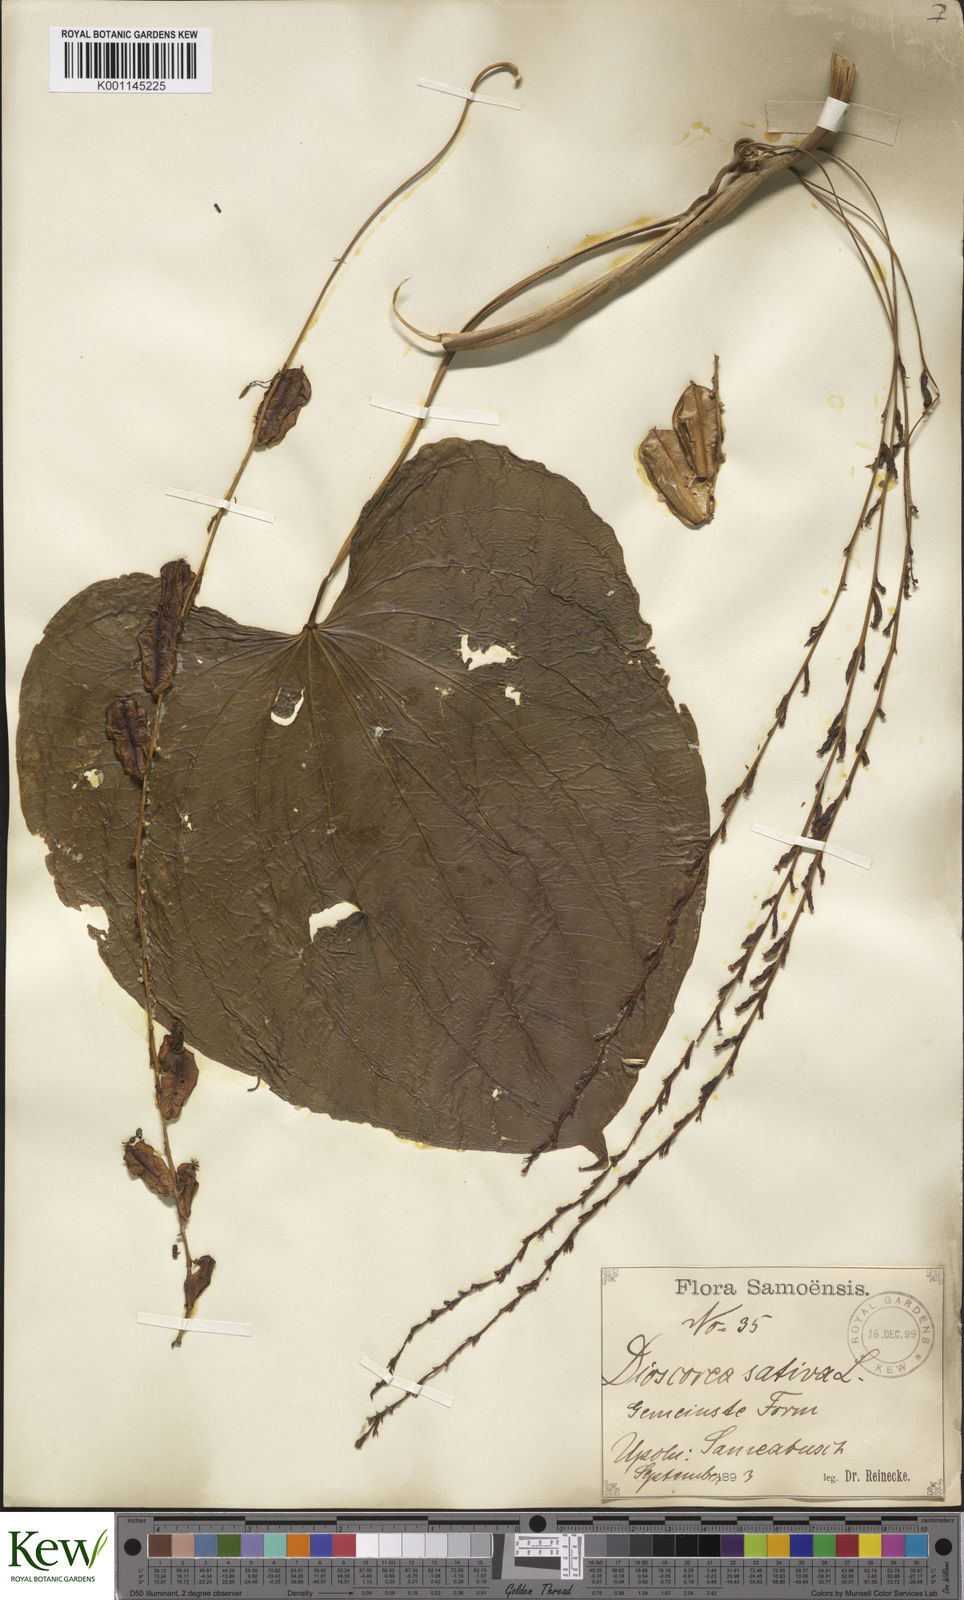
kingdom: Plantae
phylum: Tracheophyta
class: Liliopsida
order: Dioscoreales
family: Dioscoreaceae
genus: Dioscorea
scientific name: Dioscorea bulbifera
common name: Air yam
